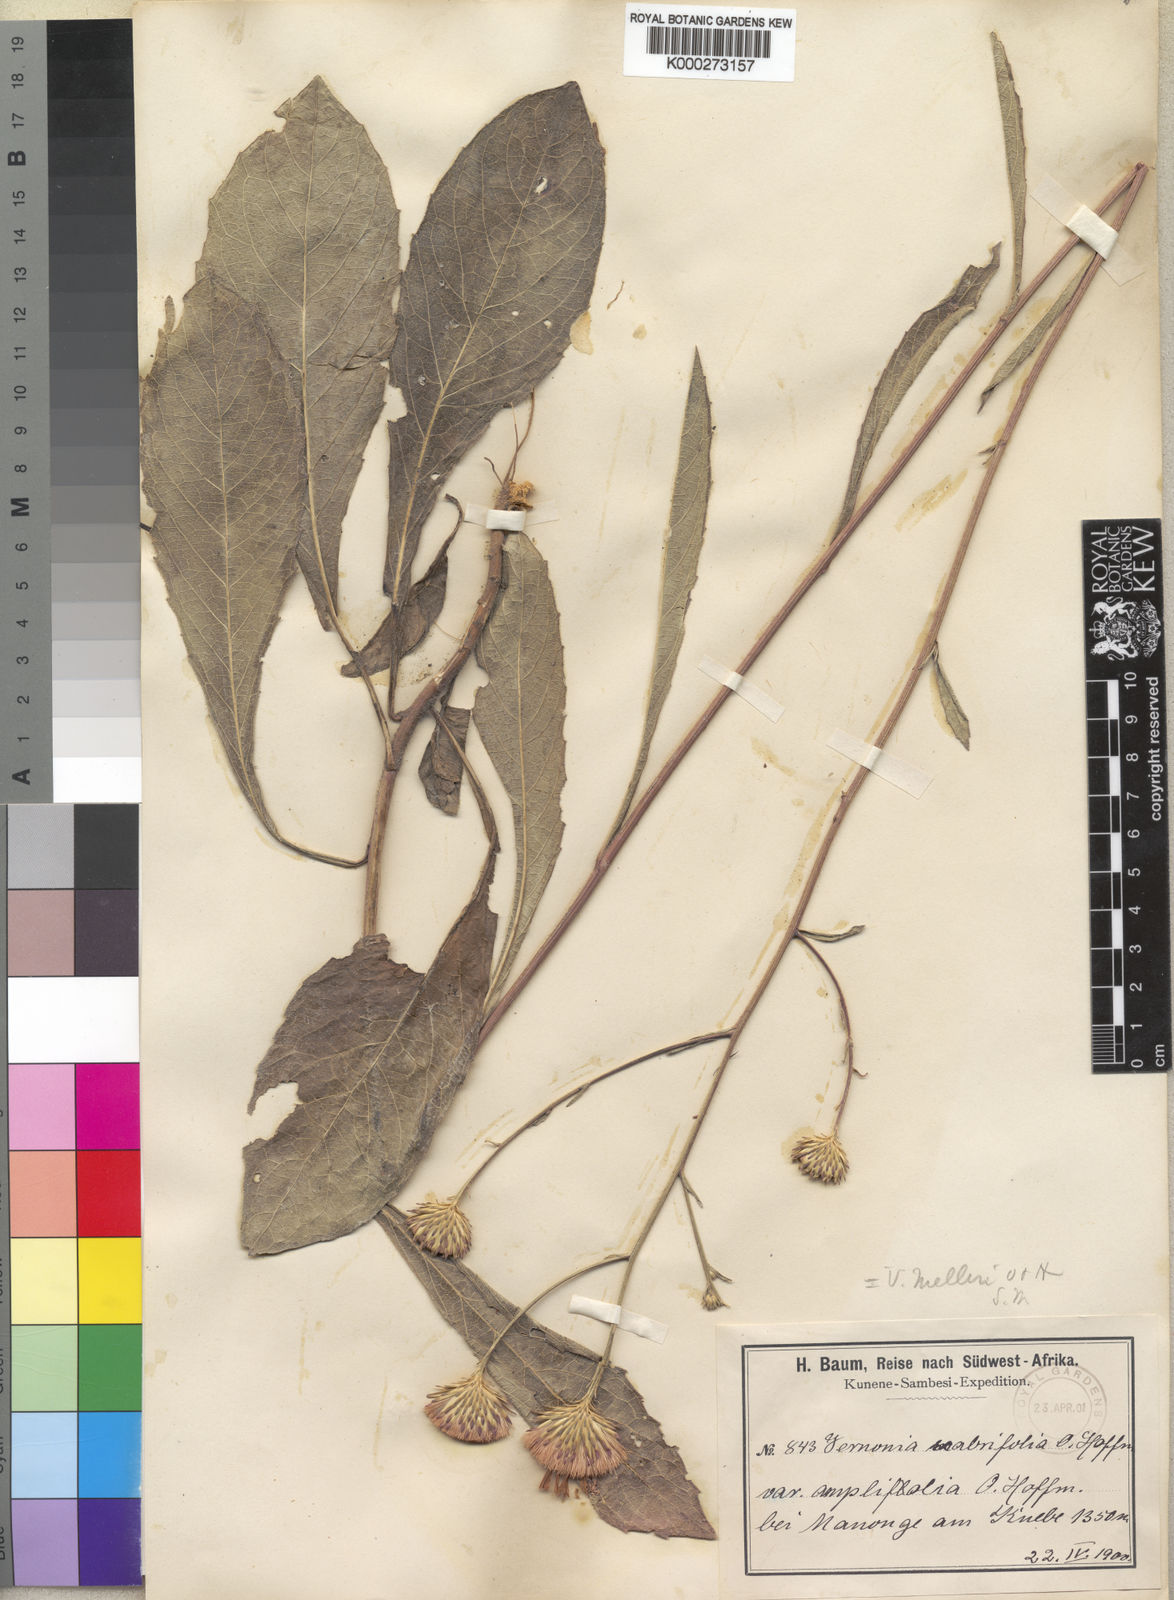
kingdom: Plantae
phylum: Tracheophyta
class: Magnoliopsida
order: Asterales
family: Asteraceae
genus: Linzia
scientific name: Linzia melleri
